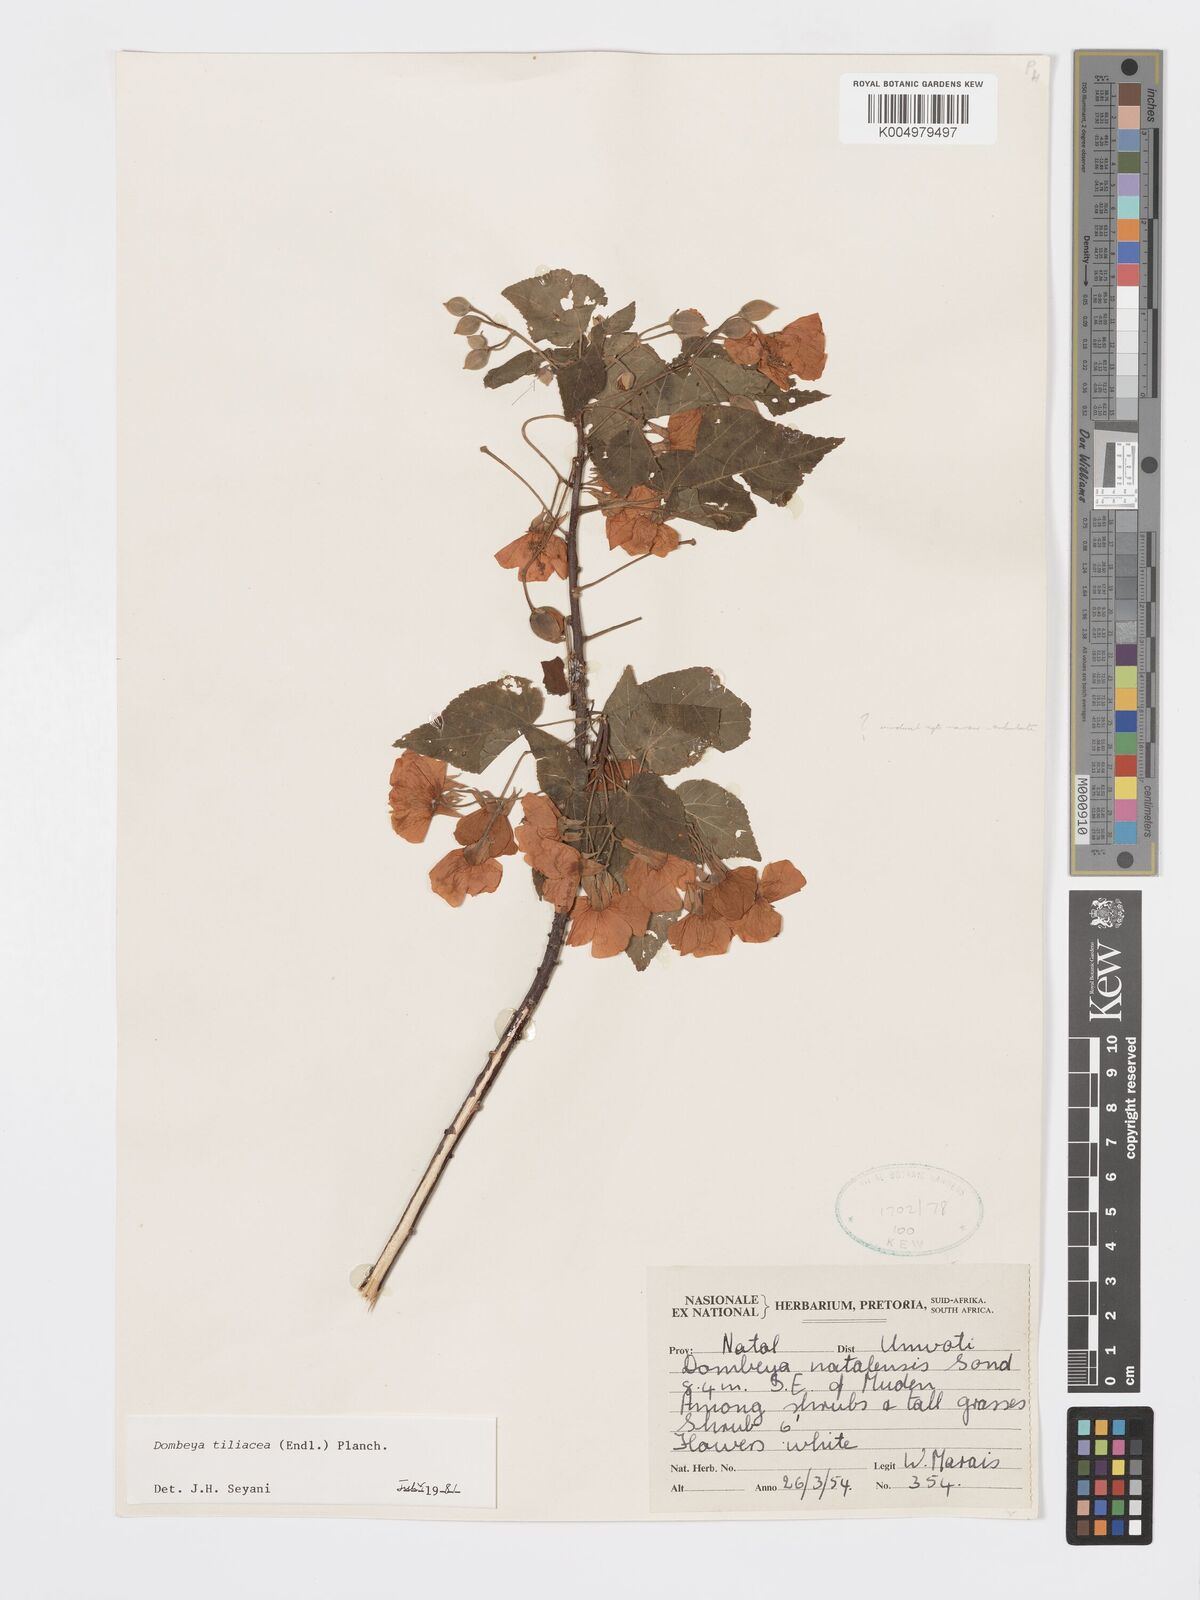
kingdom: Plantae
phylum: Tracheophyta
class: Magnoliopsida
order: Malvales
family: Malvaceae
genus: Dombeya
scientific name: Dombeya tiliacea
